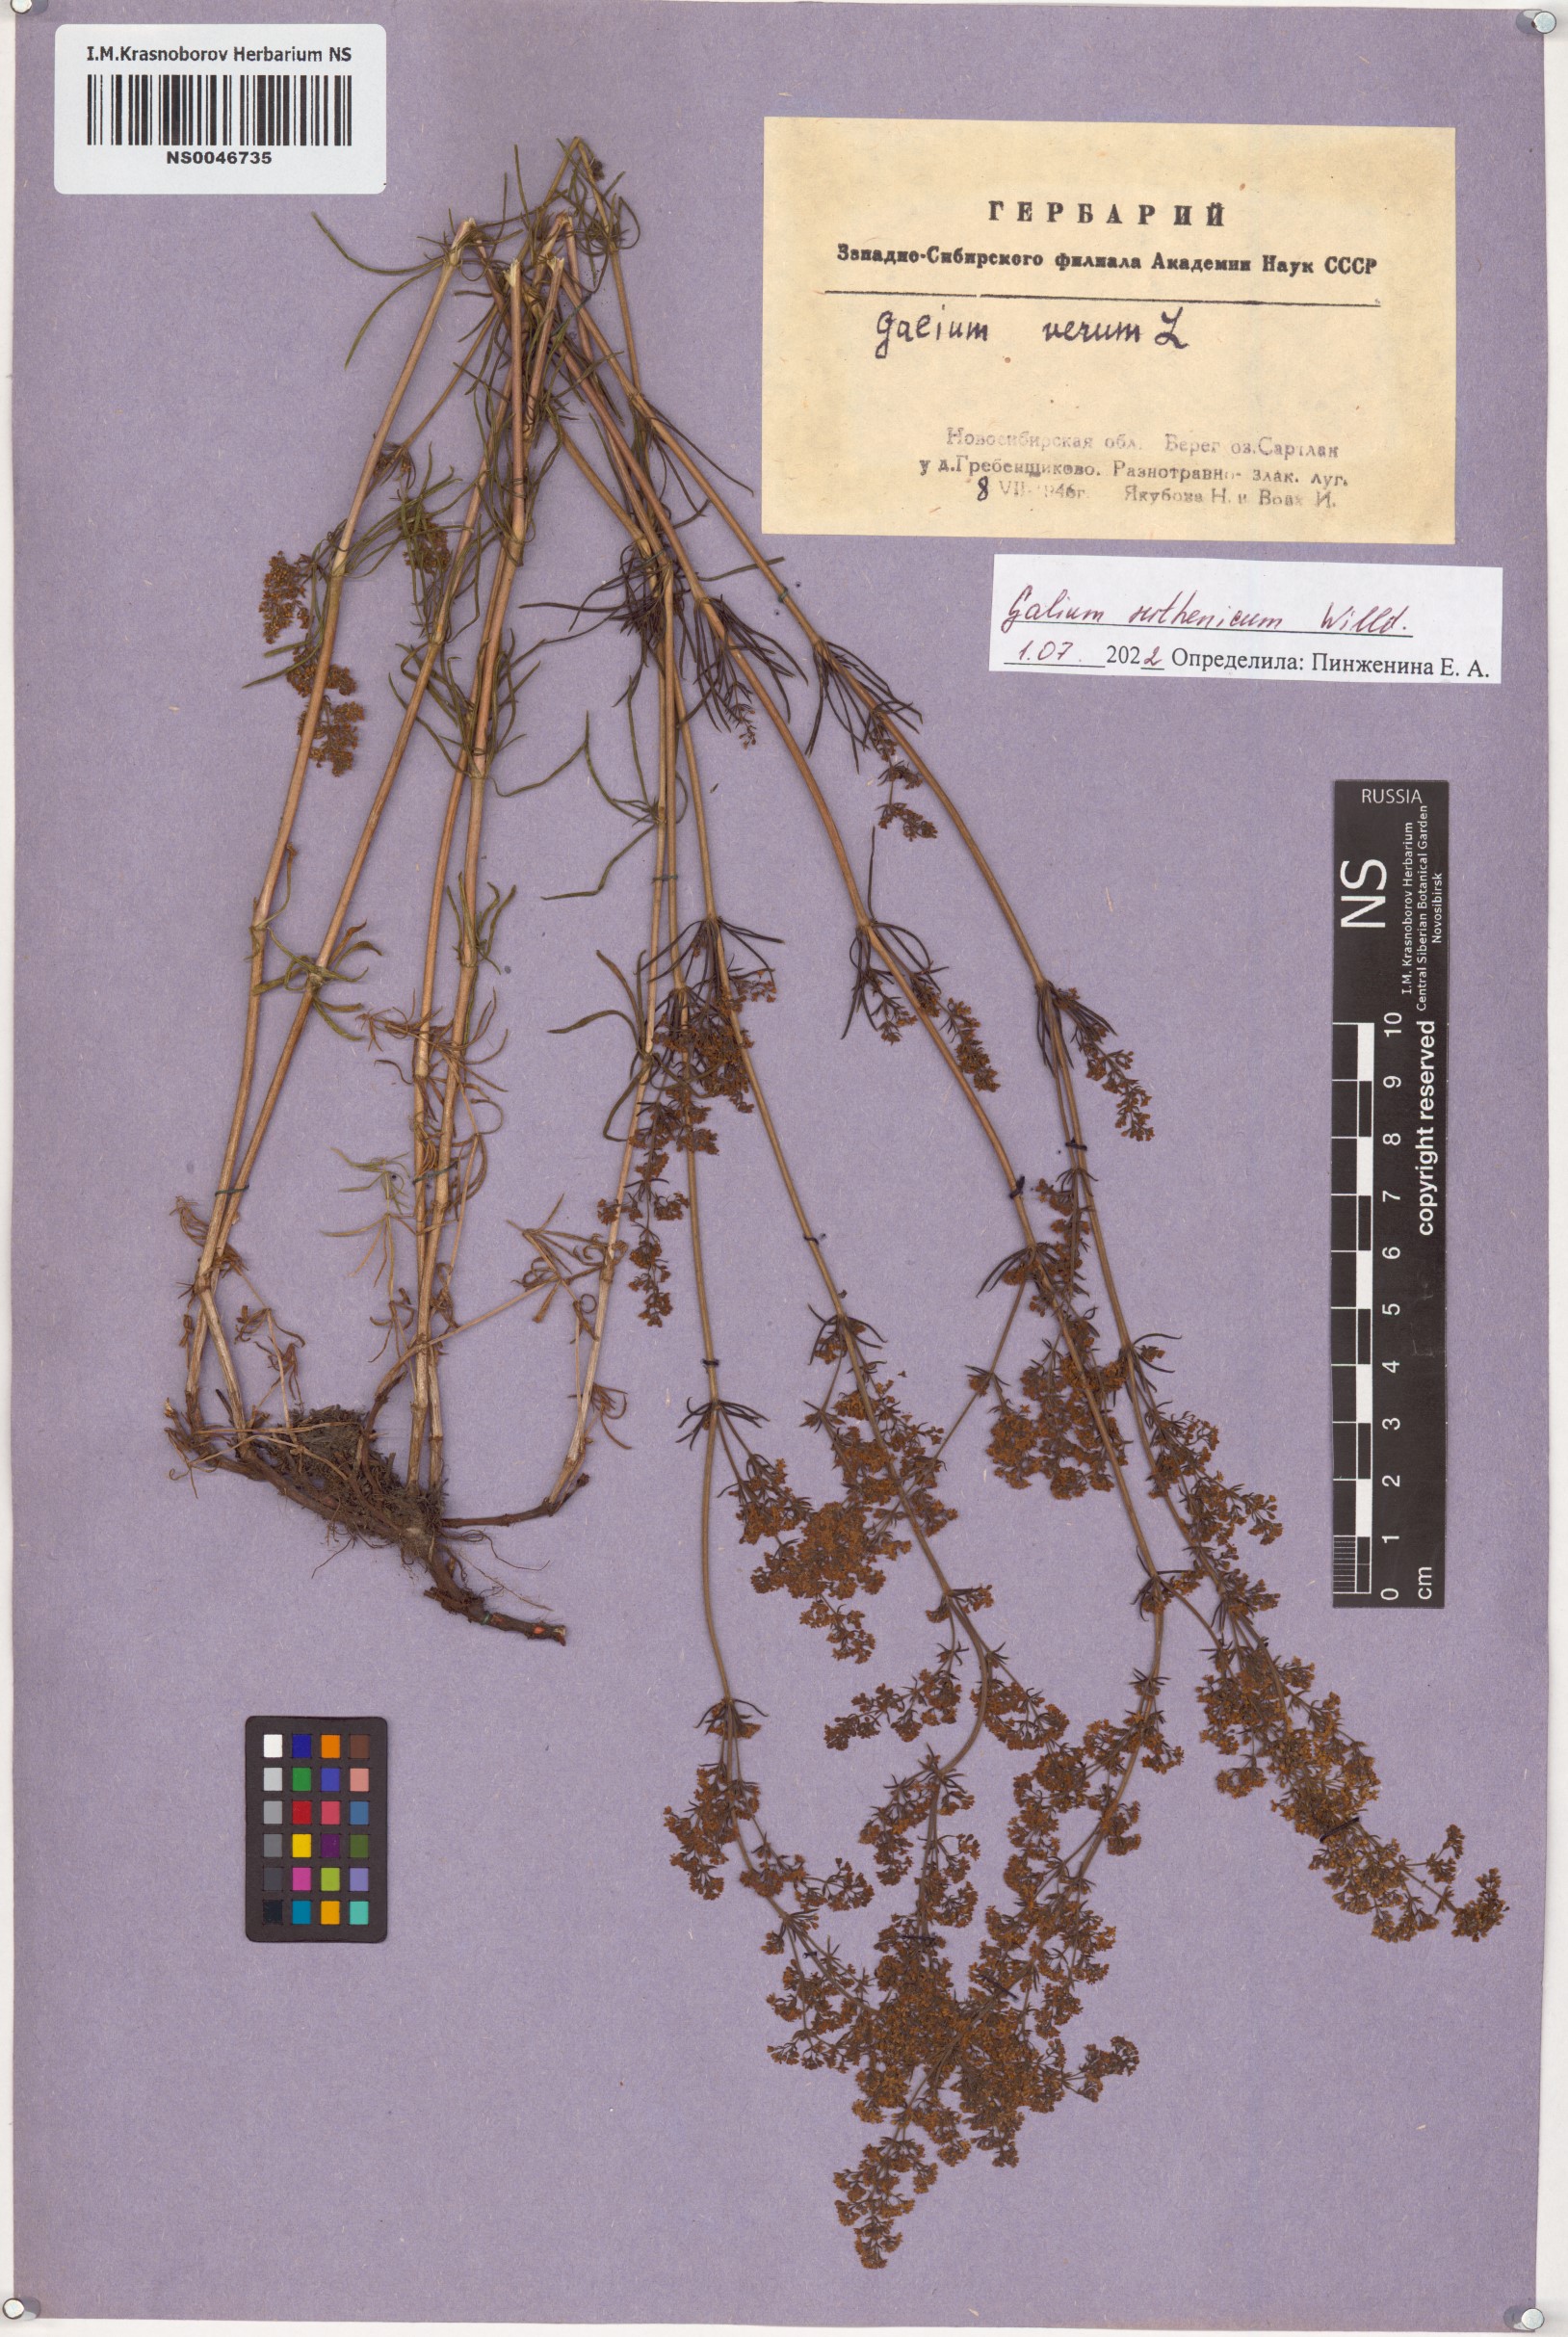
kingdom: Plantae
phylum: Tracheophyta
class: Magnoliopsida
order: Gentianales
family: Rubiaceae
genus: Galium
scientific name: Galium verum
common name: Lady's bedstraw
